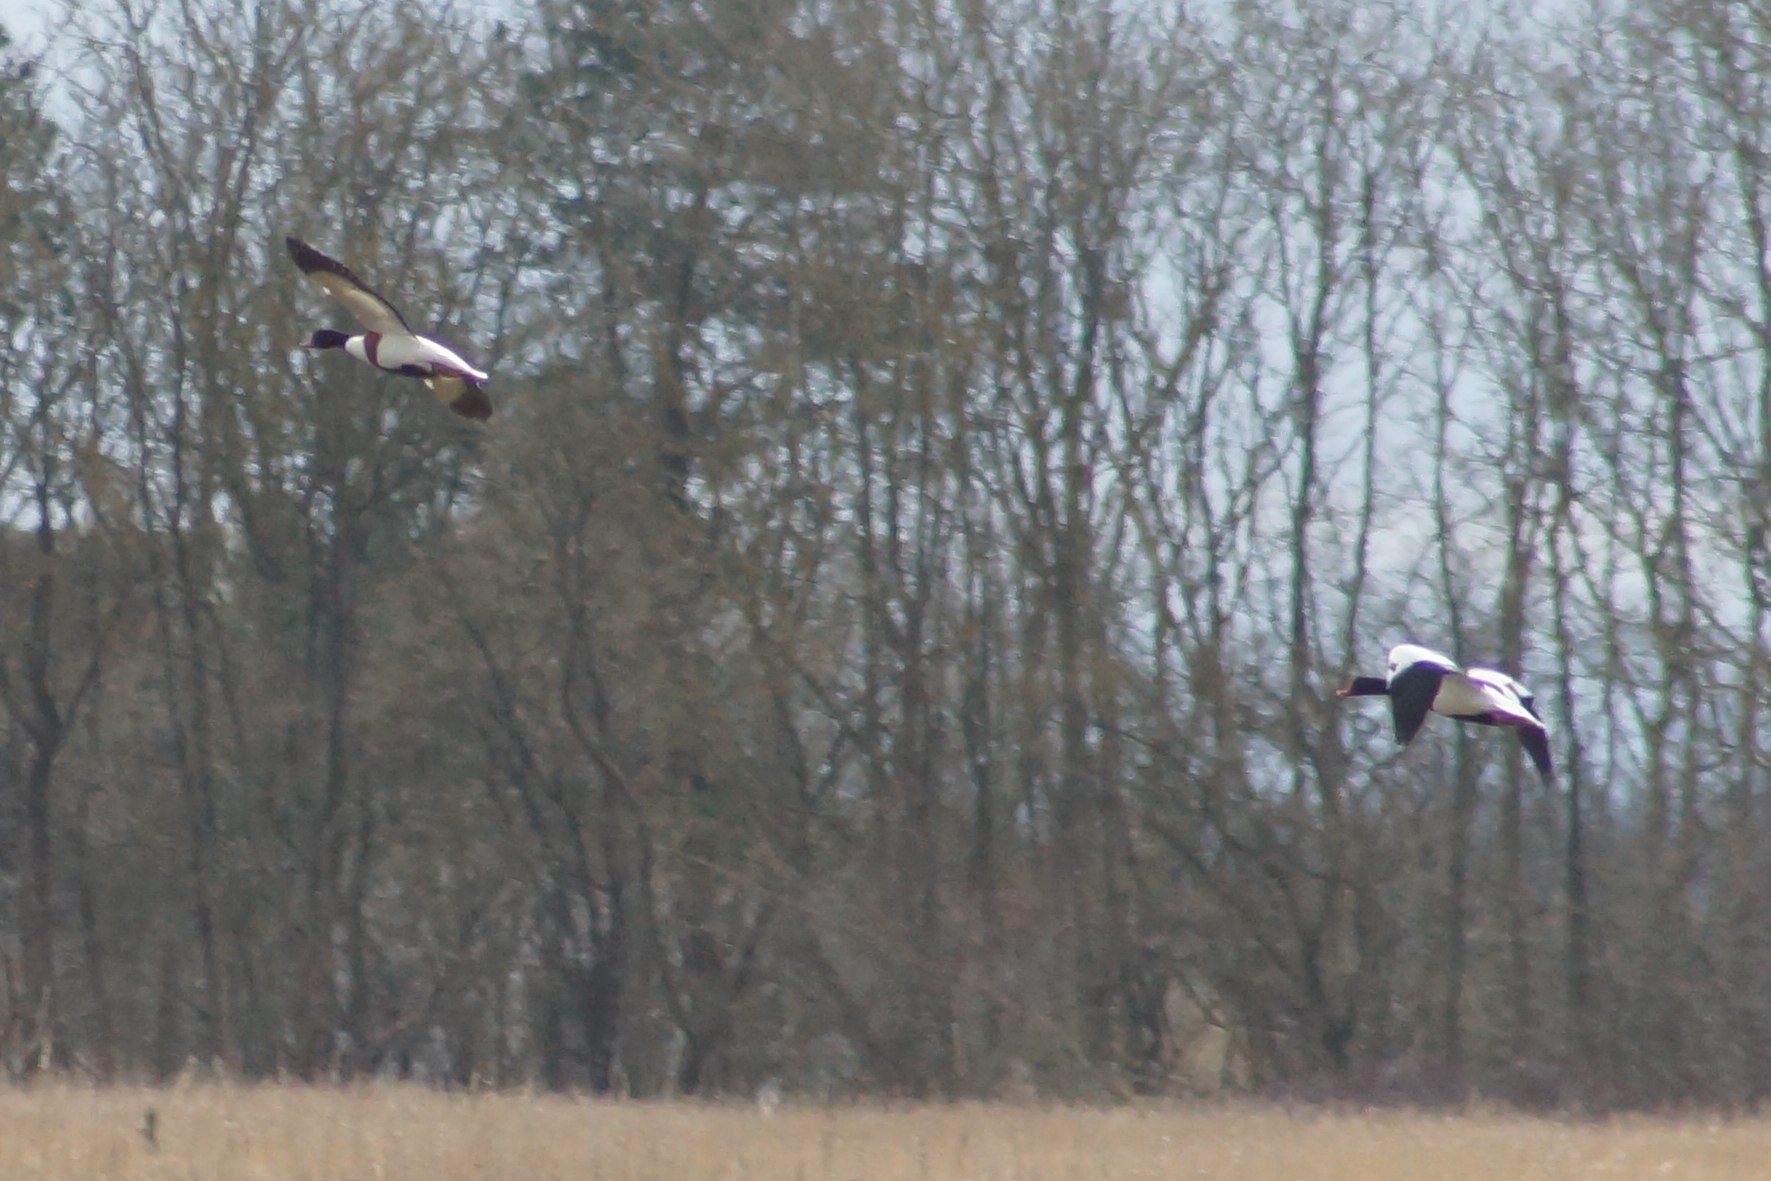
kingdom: Animalia
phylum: Chordata
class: Aves
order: Anseriformes
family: Anatidae
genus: Tadorna
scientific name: Tadorna tadorna
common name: Gravand
